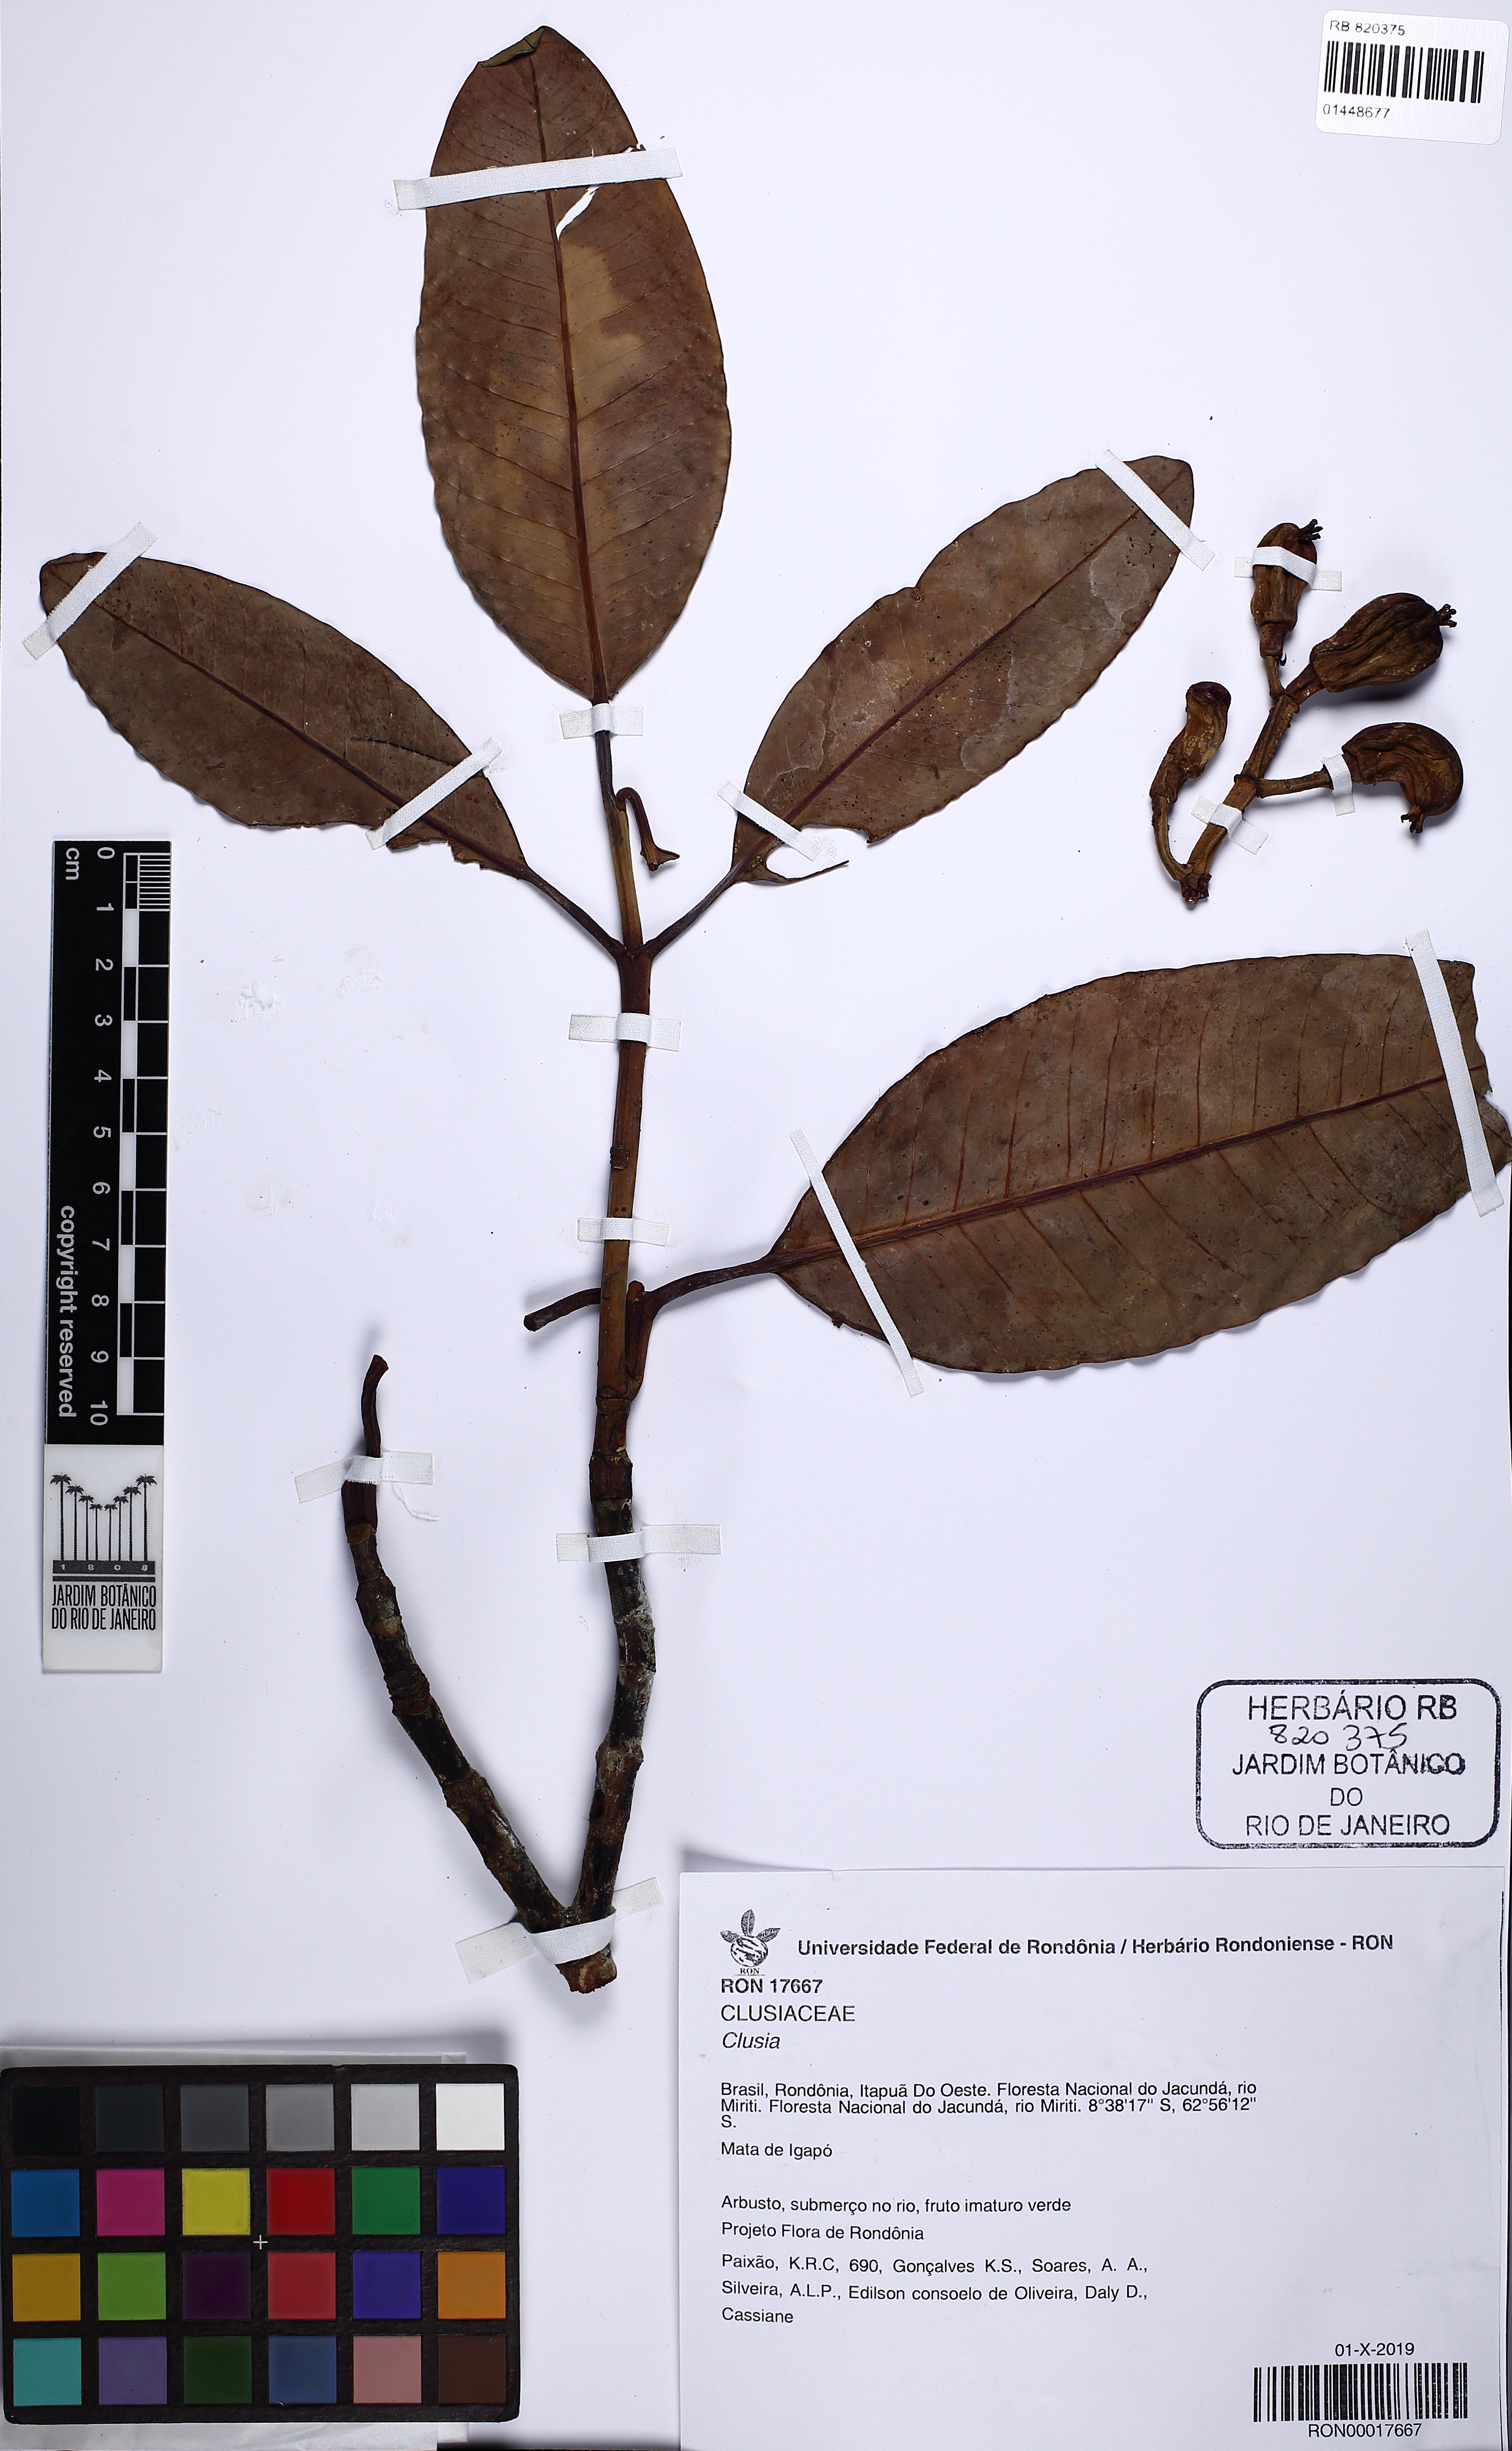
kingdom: Plantae
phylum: Tracheophyta
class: Magnoliopsida
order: Malpighiales
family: Clusiaceae
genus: Clusia
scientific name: Clusia
